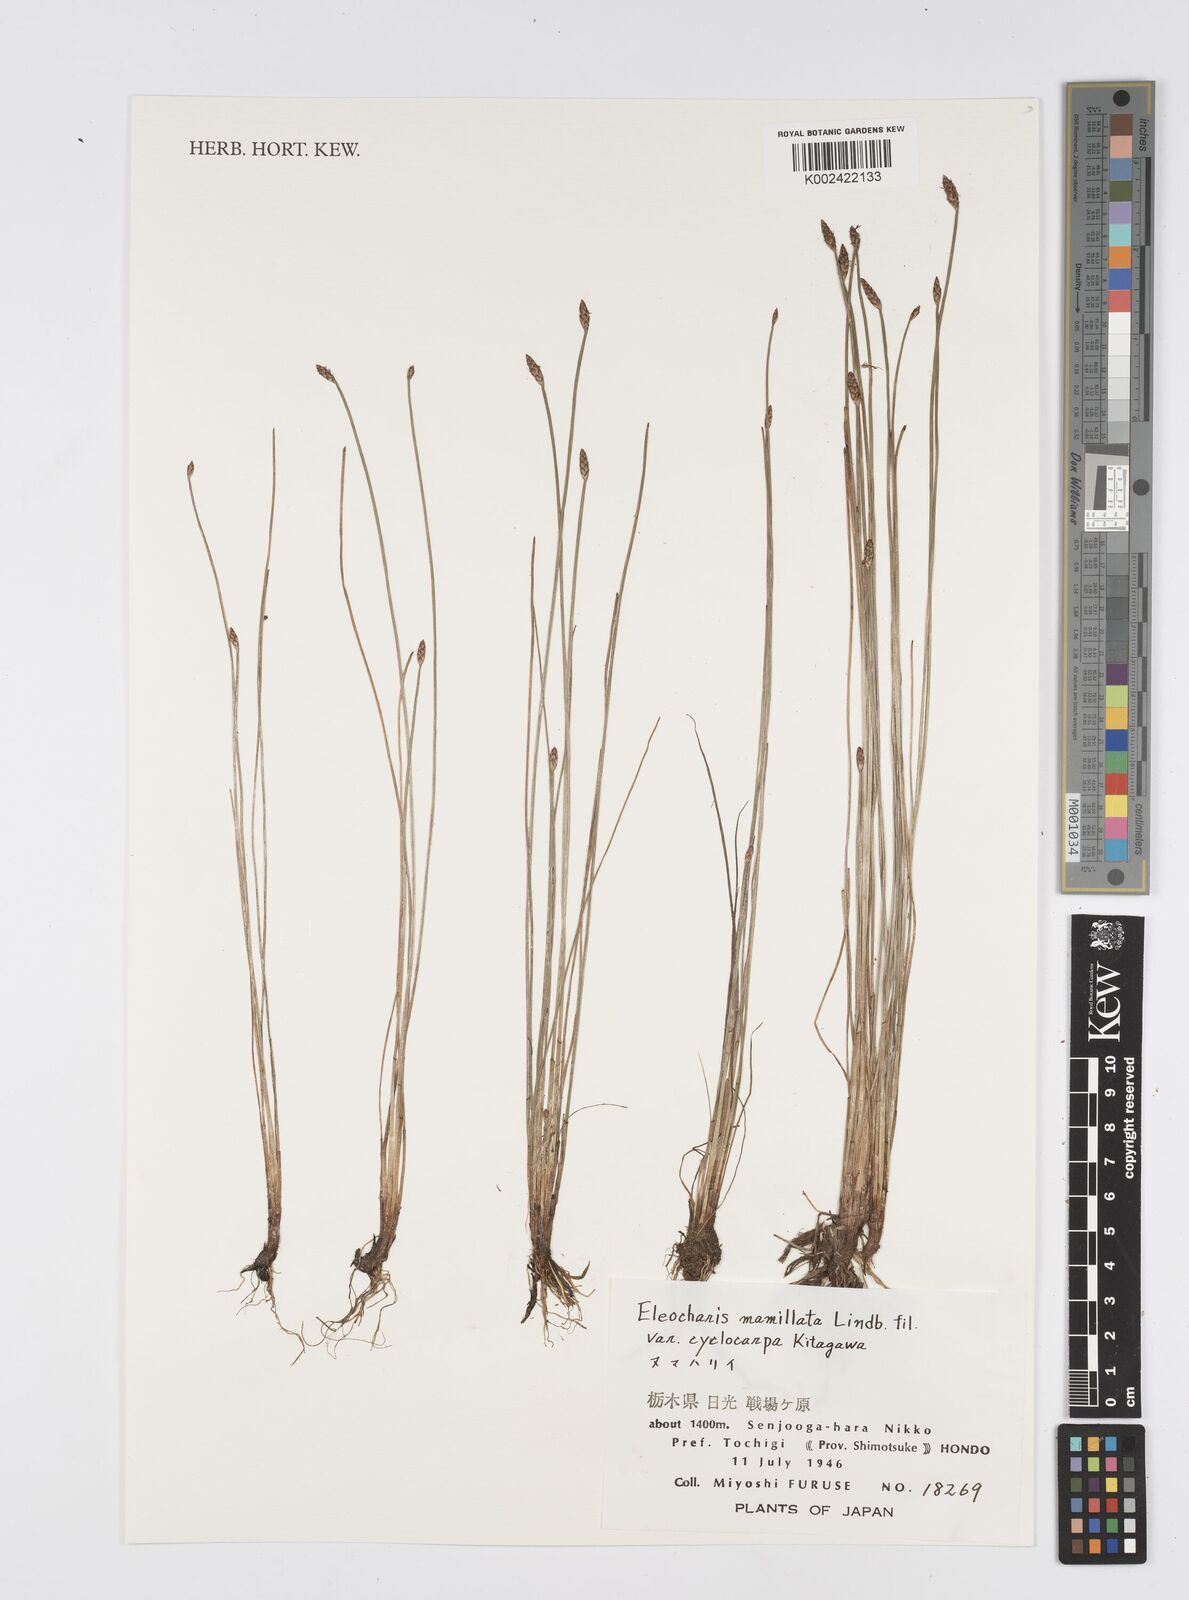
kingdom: Plantae
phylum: Tracheophyta
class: Liliopsida
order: Poales
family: Cyperaceae
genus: Eleocharis
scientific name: Eleocharis mamillata
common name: Northern spike-rush
